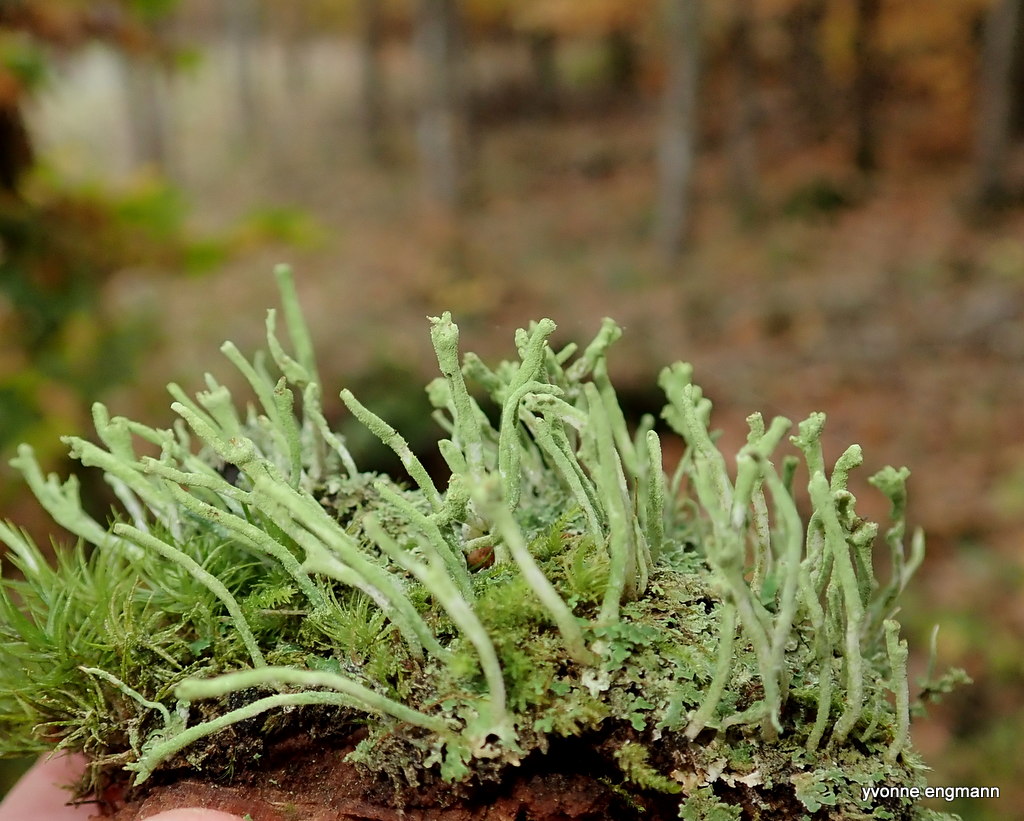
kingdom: Fungi
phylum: Ascomycota
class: Lecanoromycetes
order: Lecanorales
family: Cladoniaceae
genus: Cladonia
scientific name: Cladonia ochrochlora
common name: stød-bægerlav
